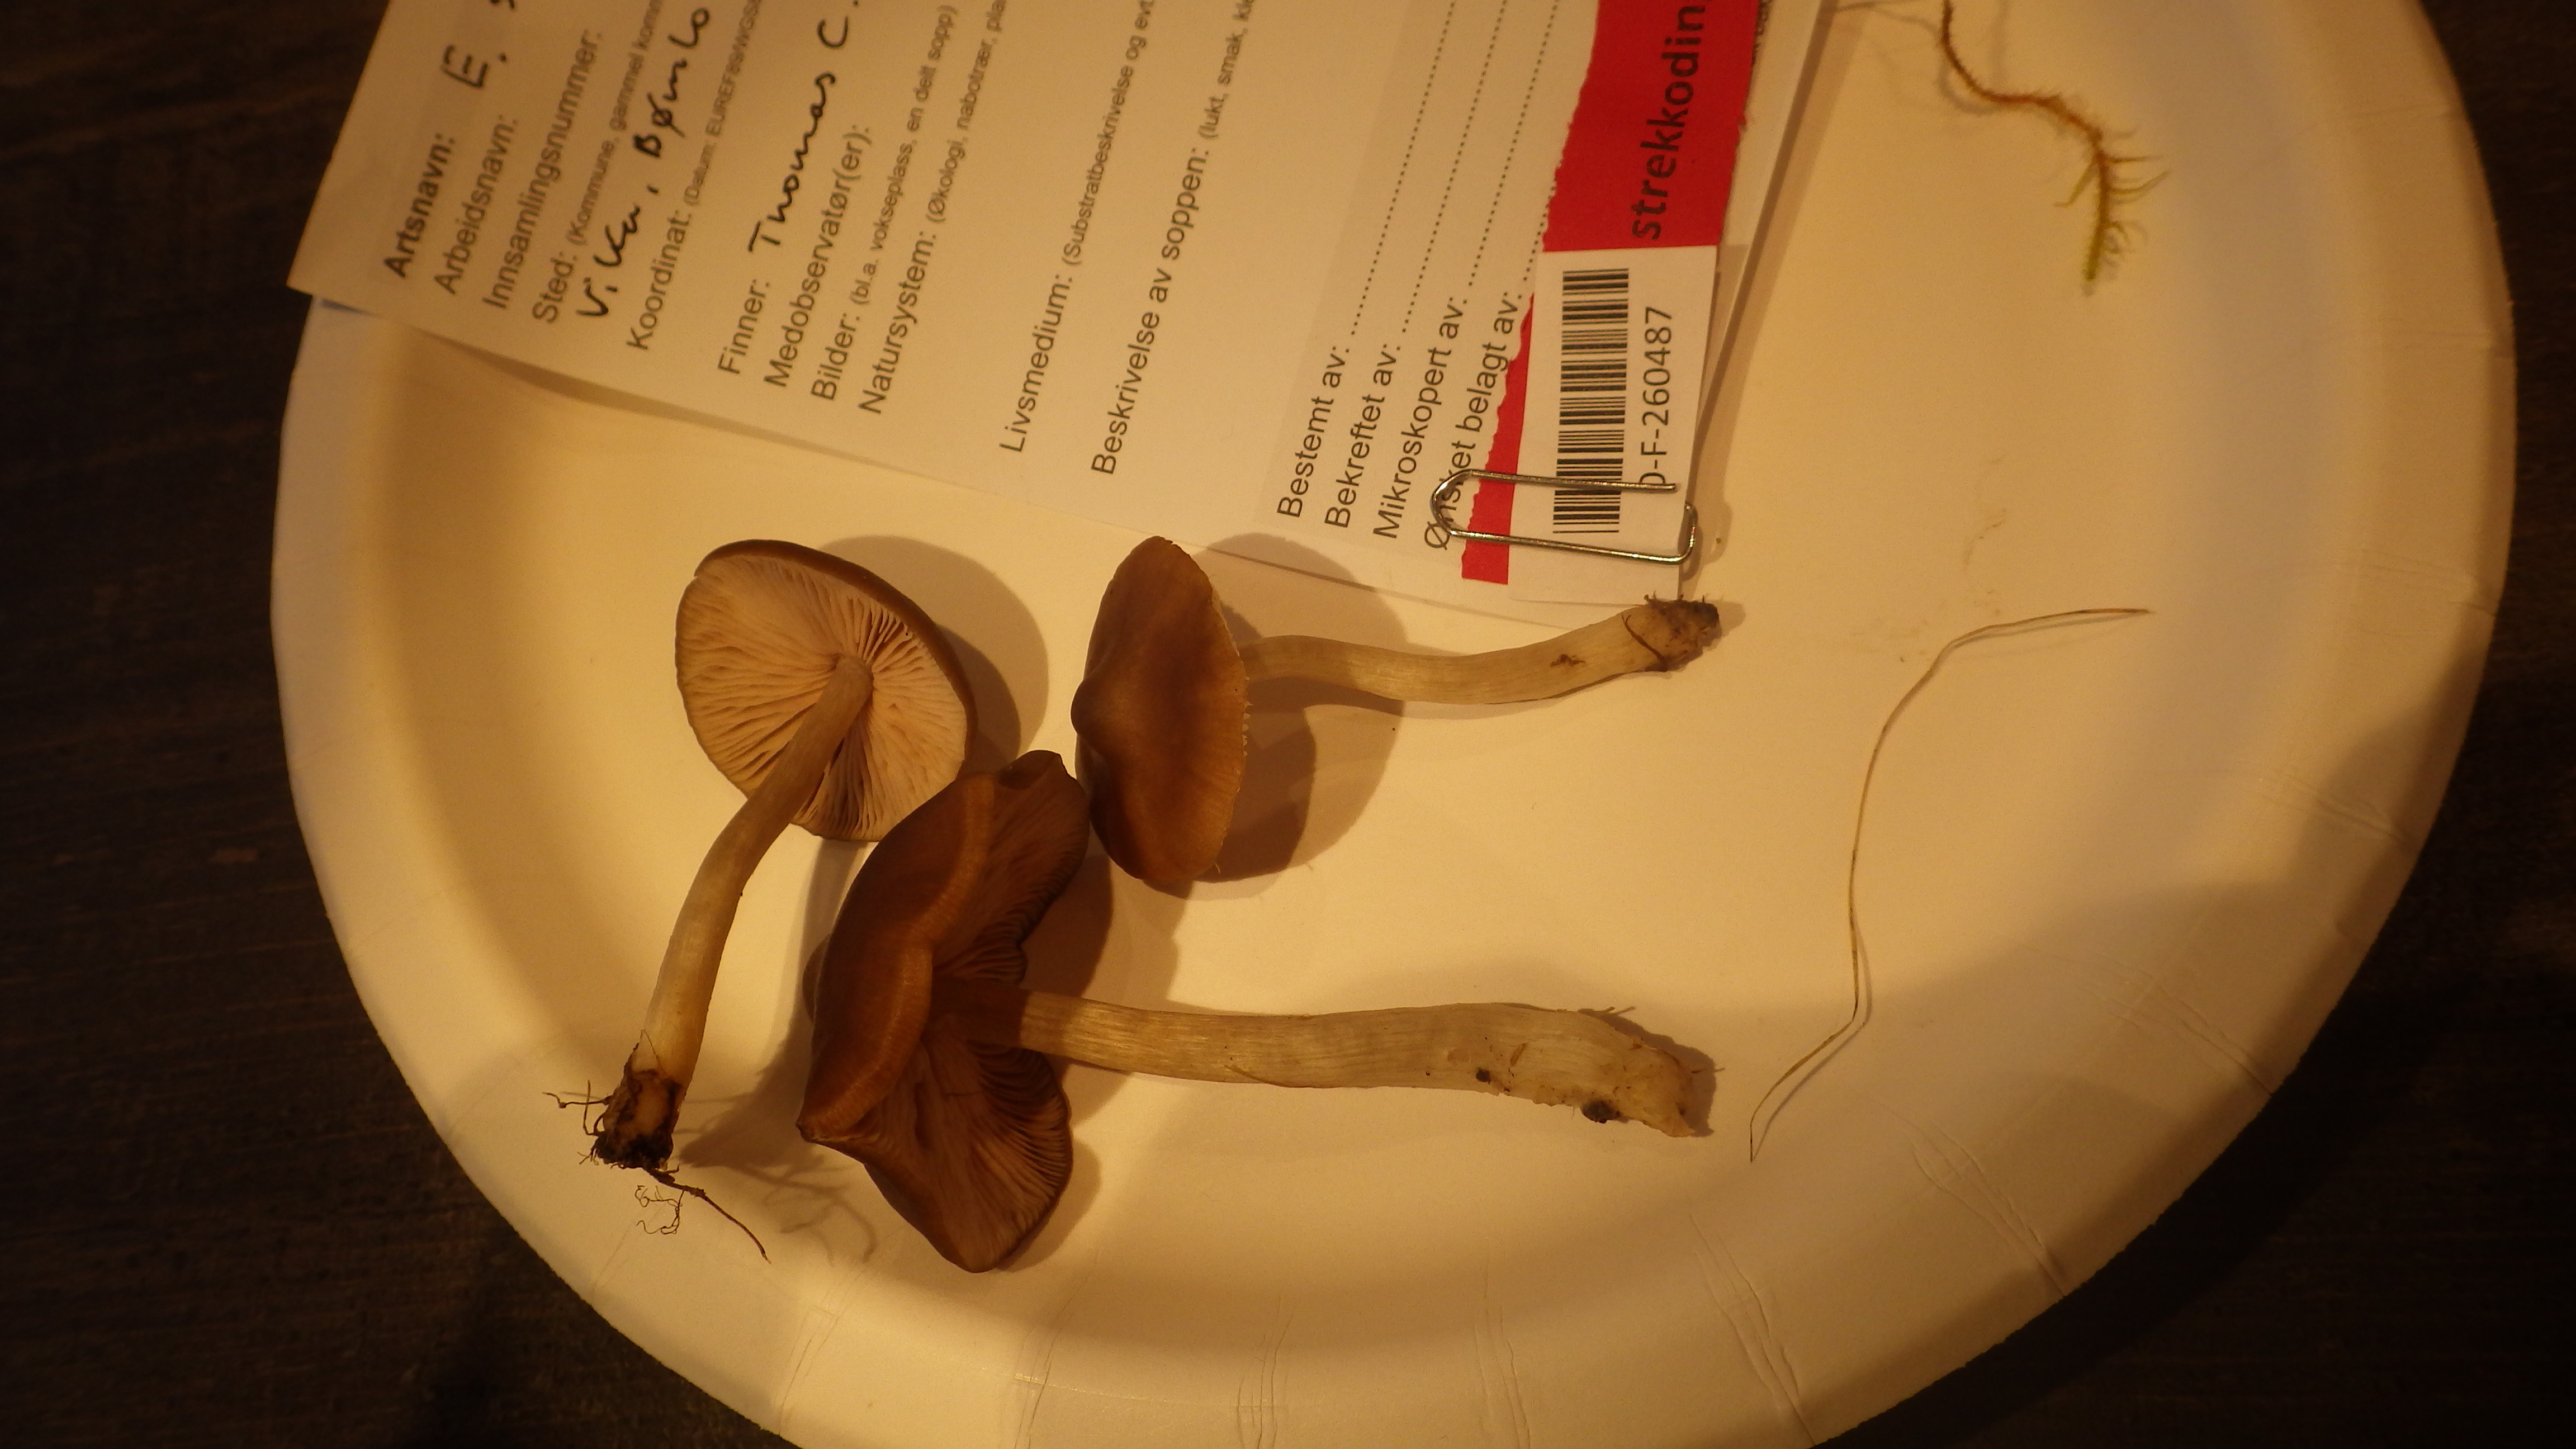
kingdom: Fungi
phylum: Basidiomycota
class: Agaricomycetes
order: Agaricales
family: Entolomataceae
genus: Entoloma
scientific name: Entoloma sordidulum
